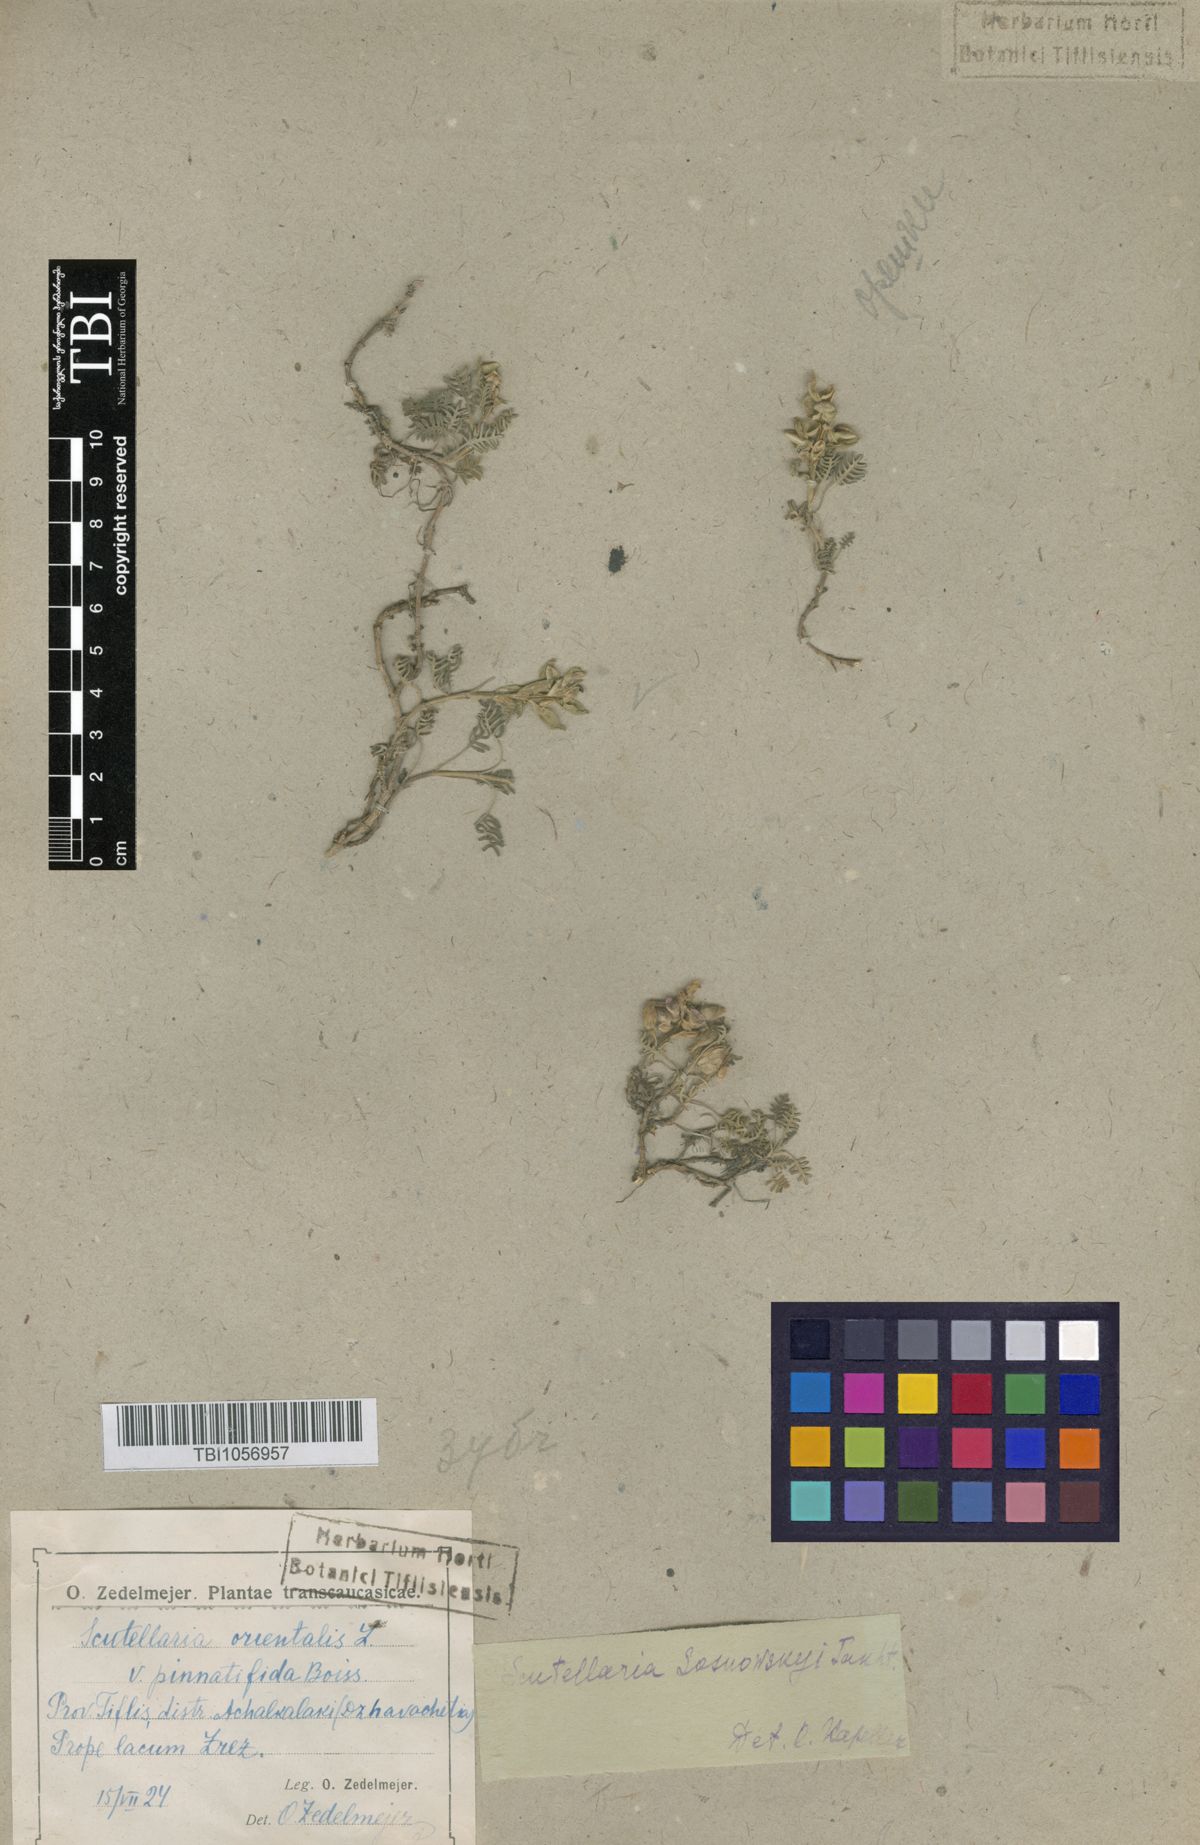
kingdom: Plantae
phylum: Tracheophyta
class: Magnoliopsida
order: Lamiales
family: Lamiaceae
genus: Scutellaria
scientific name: Scutellaria sosnowskyi
